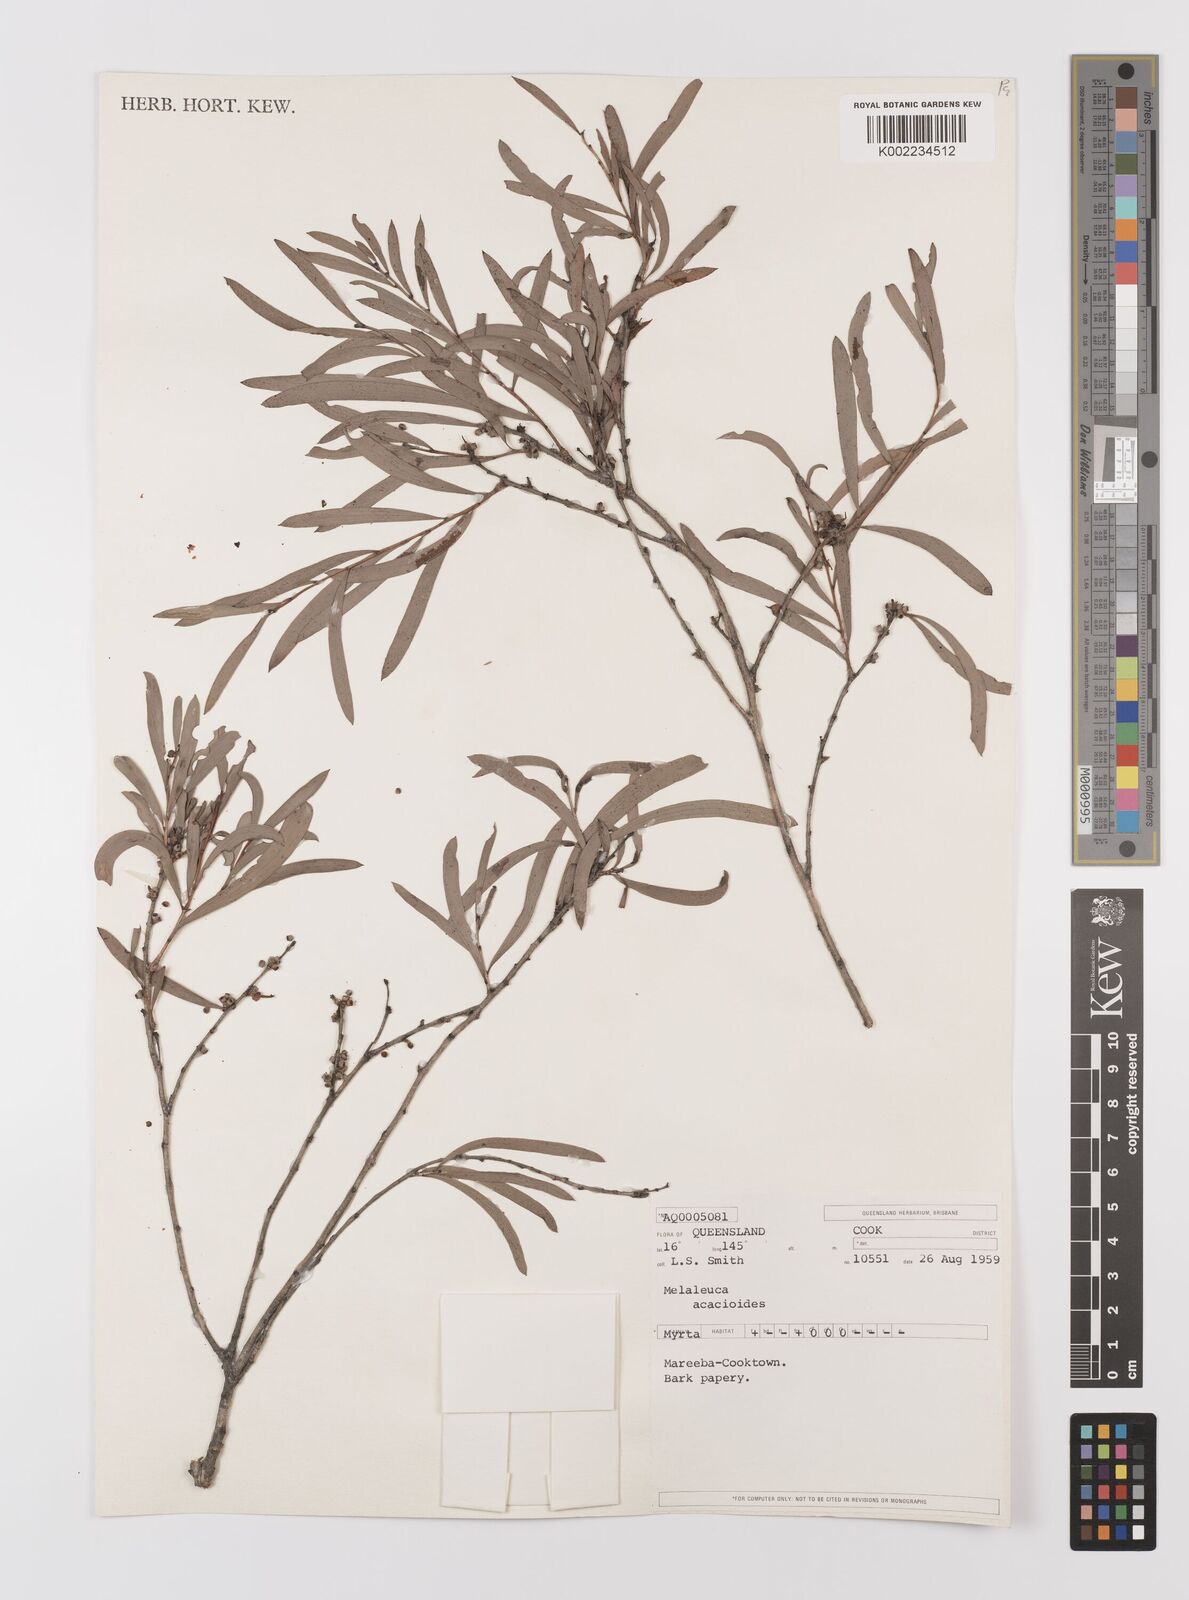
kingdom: Plantae
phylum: Tracheophyta
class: Magnoliopsida
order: Myrtales
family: Myrtaceae
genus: Melaleuca
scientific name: Melaleuca citrolens
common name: Lemon-scented paperbark
